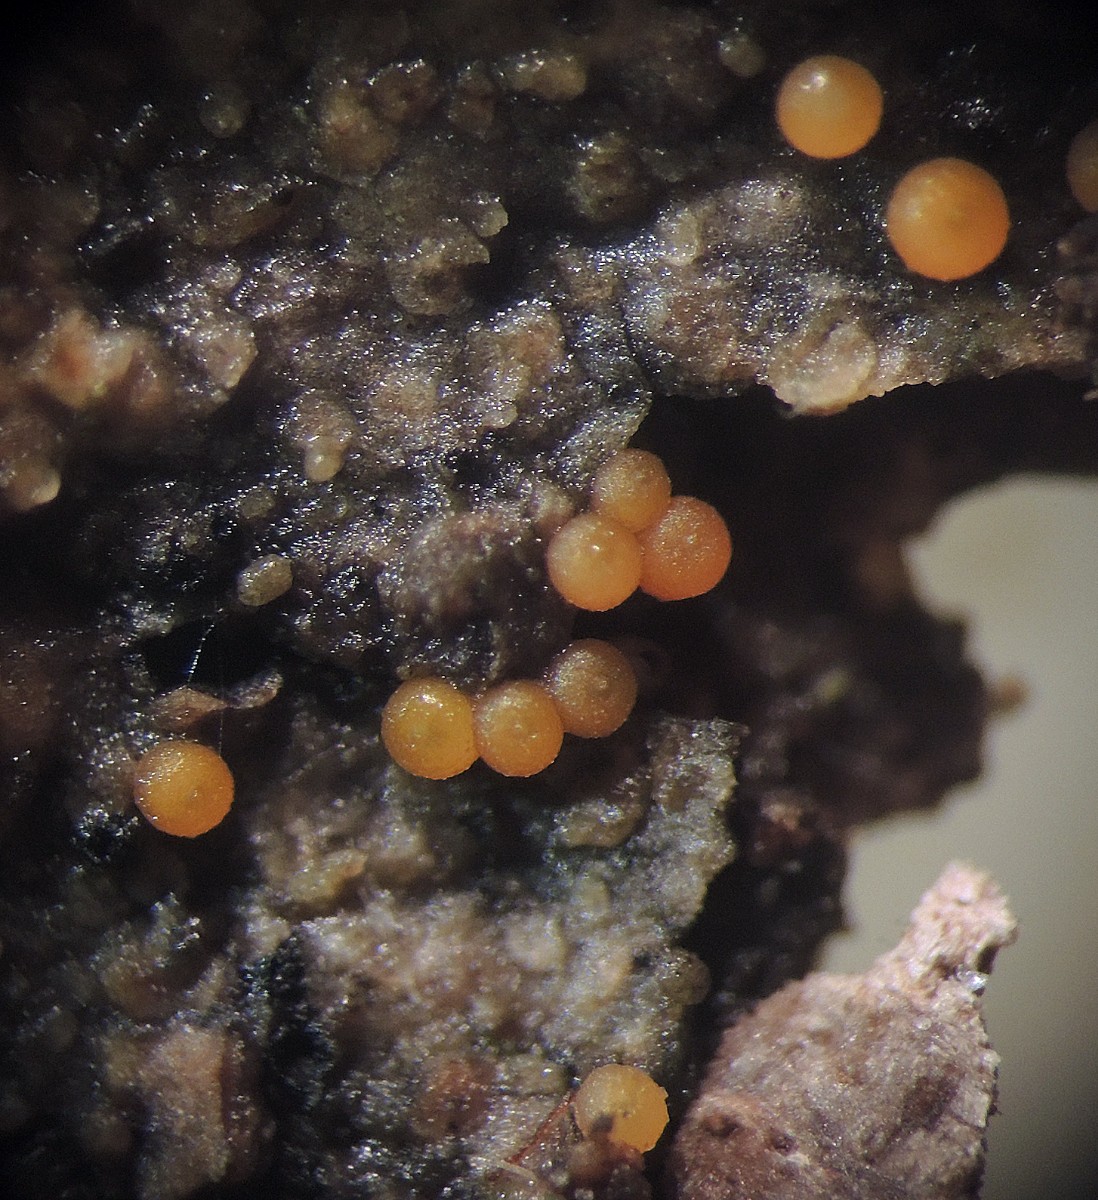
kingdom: Fungi
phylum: Ascomycota
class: Sordariomycetes
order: Hypocreales
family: Nectriaceae
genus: Hydropisphaera
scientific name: Hydropisphaera peziza
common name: skålformet gyldenkerne
